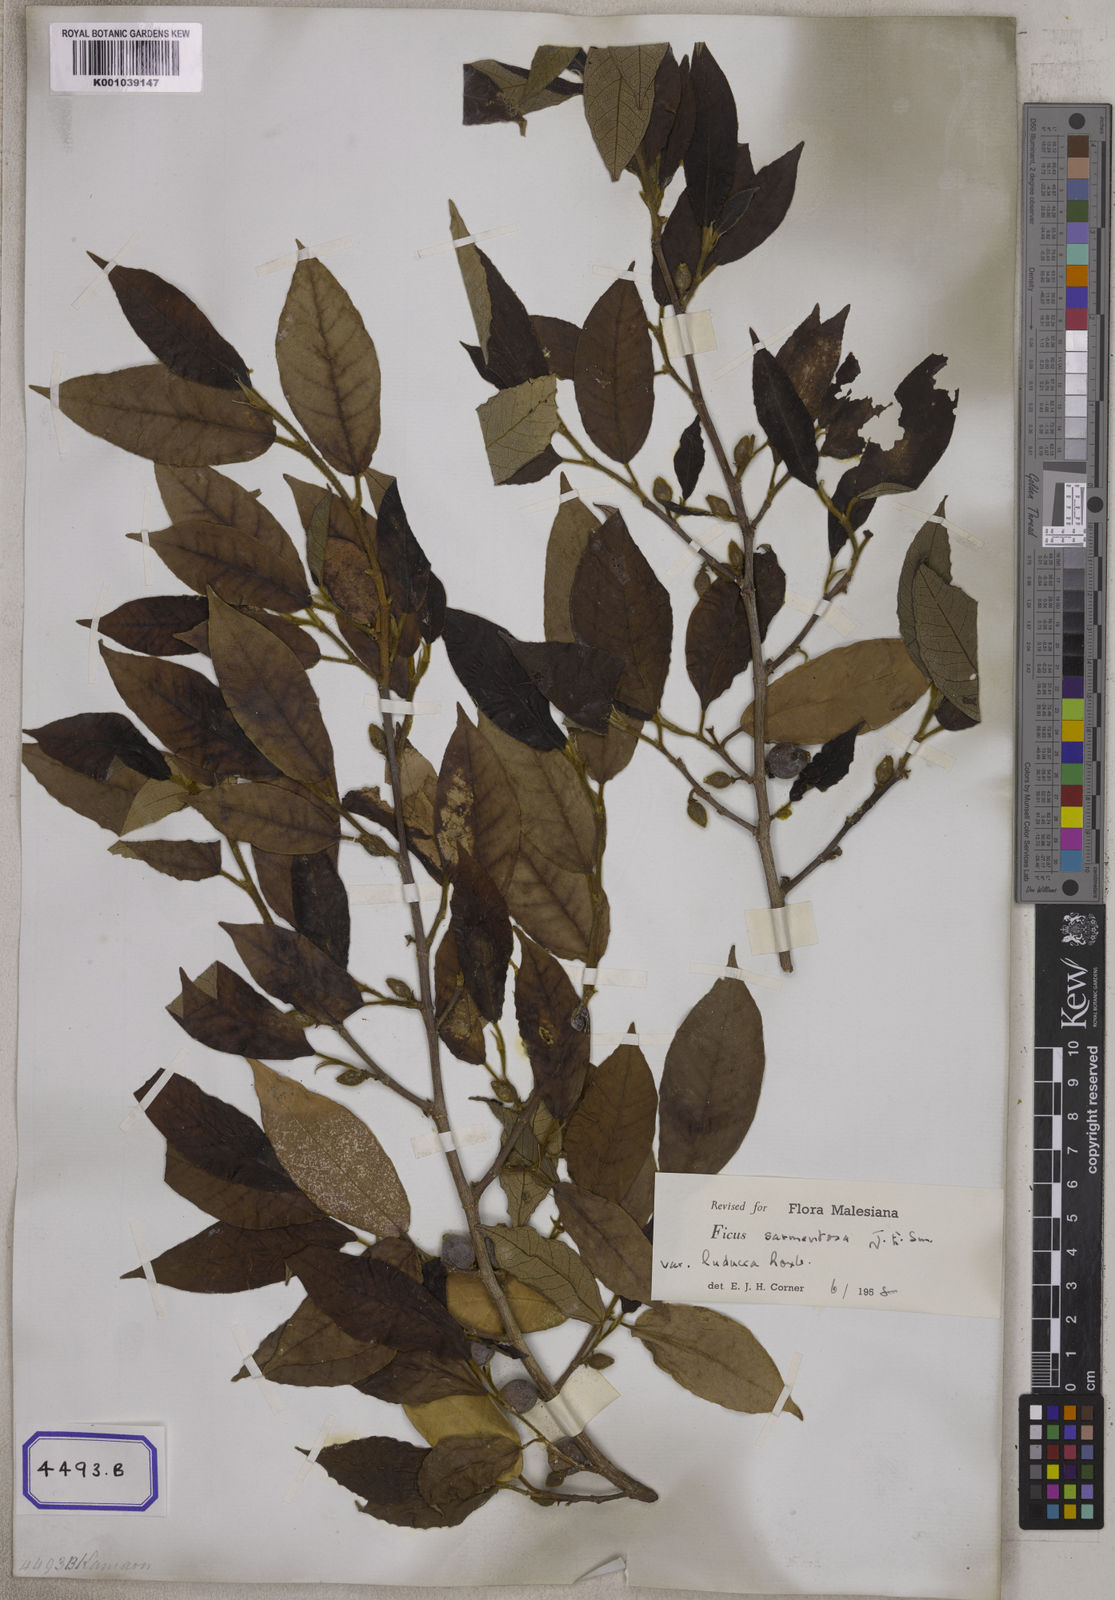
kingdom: Plantae
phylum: Tracheophyta
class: Magnoliopsida
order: Rosales
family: Moraceae
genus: Ficus
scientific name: Ficus
